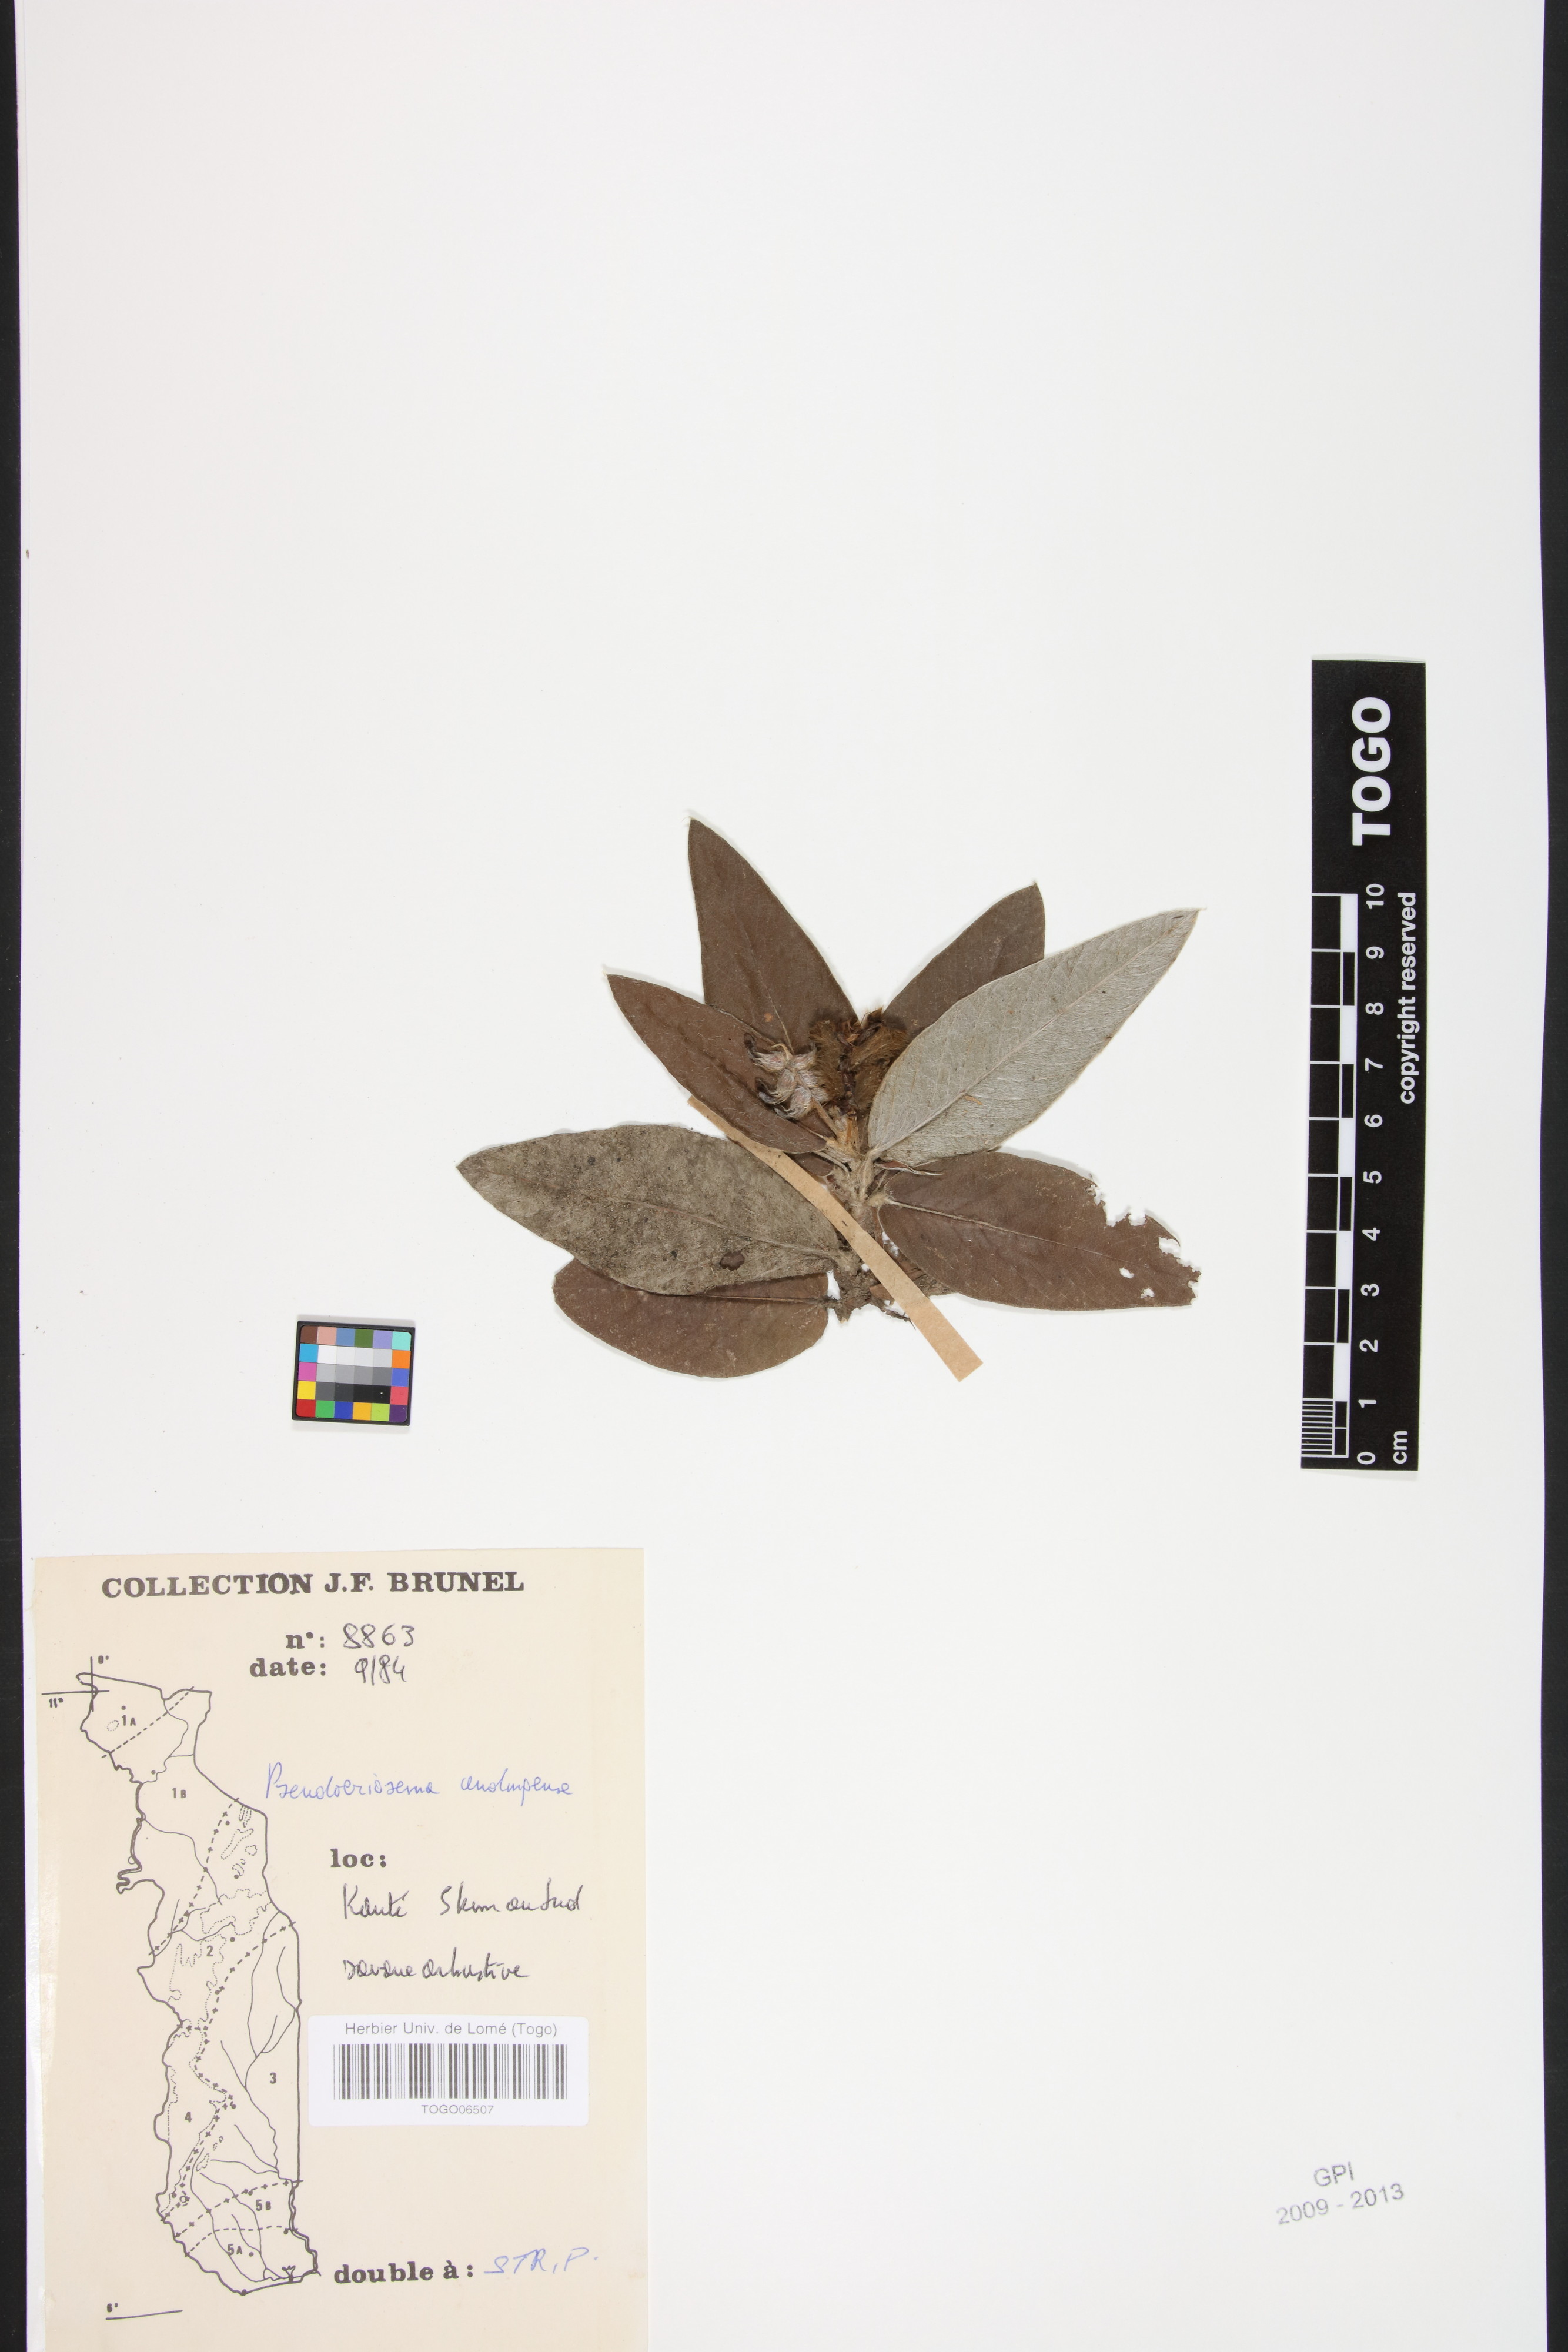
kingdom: Plantae
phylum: Tracheophyta
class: Magnoliopsida
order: Fabales
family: Fabaceae
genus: Pseudoeriosema
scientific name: Pseudoeriosema andongense
